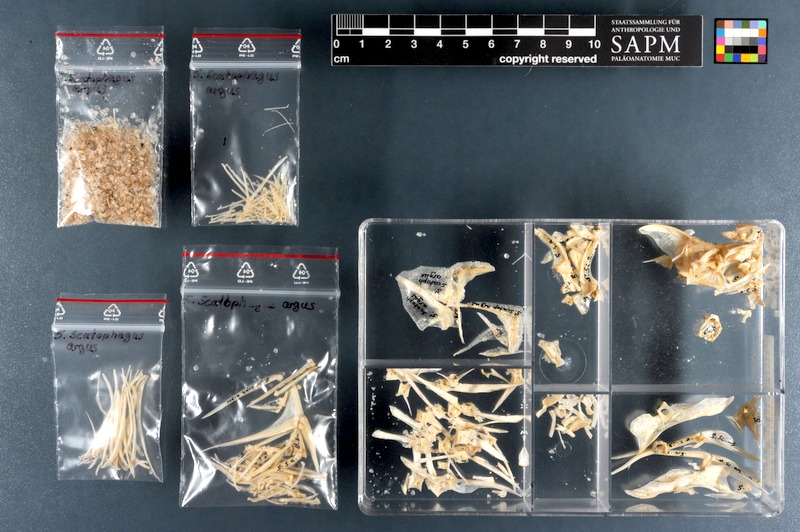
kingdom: Animalia
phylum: Chordata
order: Perciformes
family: Scatophagidae
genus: Scatophagus
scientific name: Scatophagus argus
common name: Spotted scat
